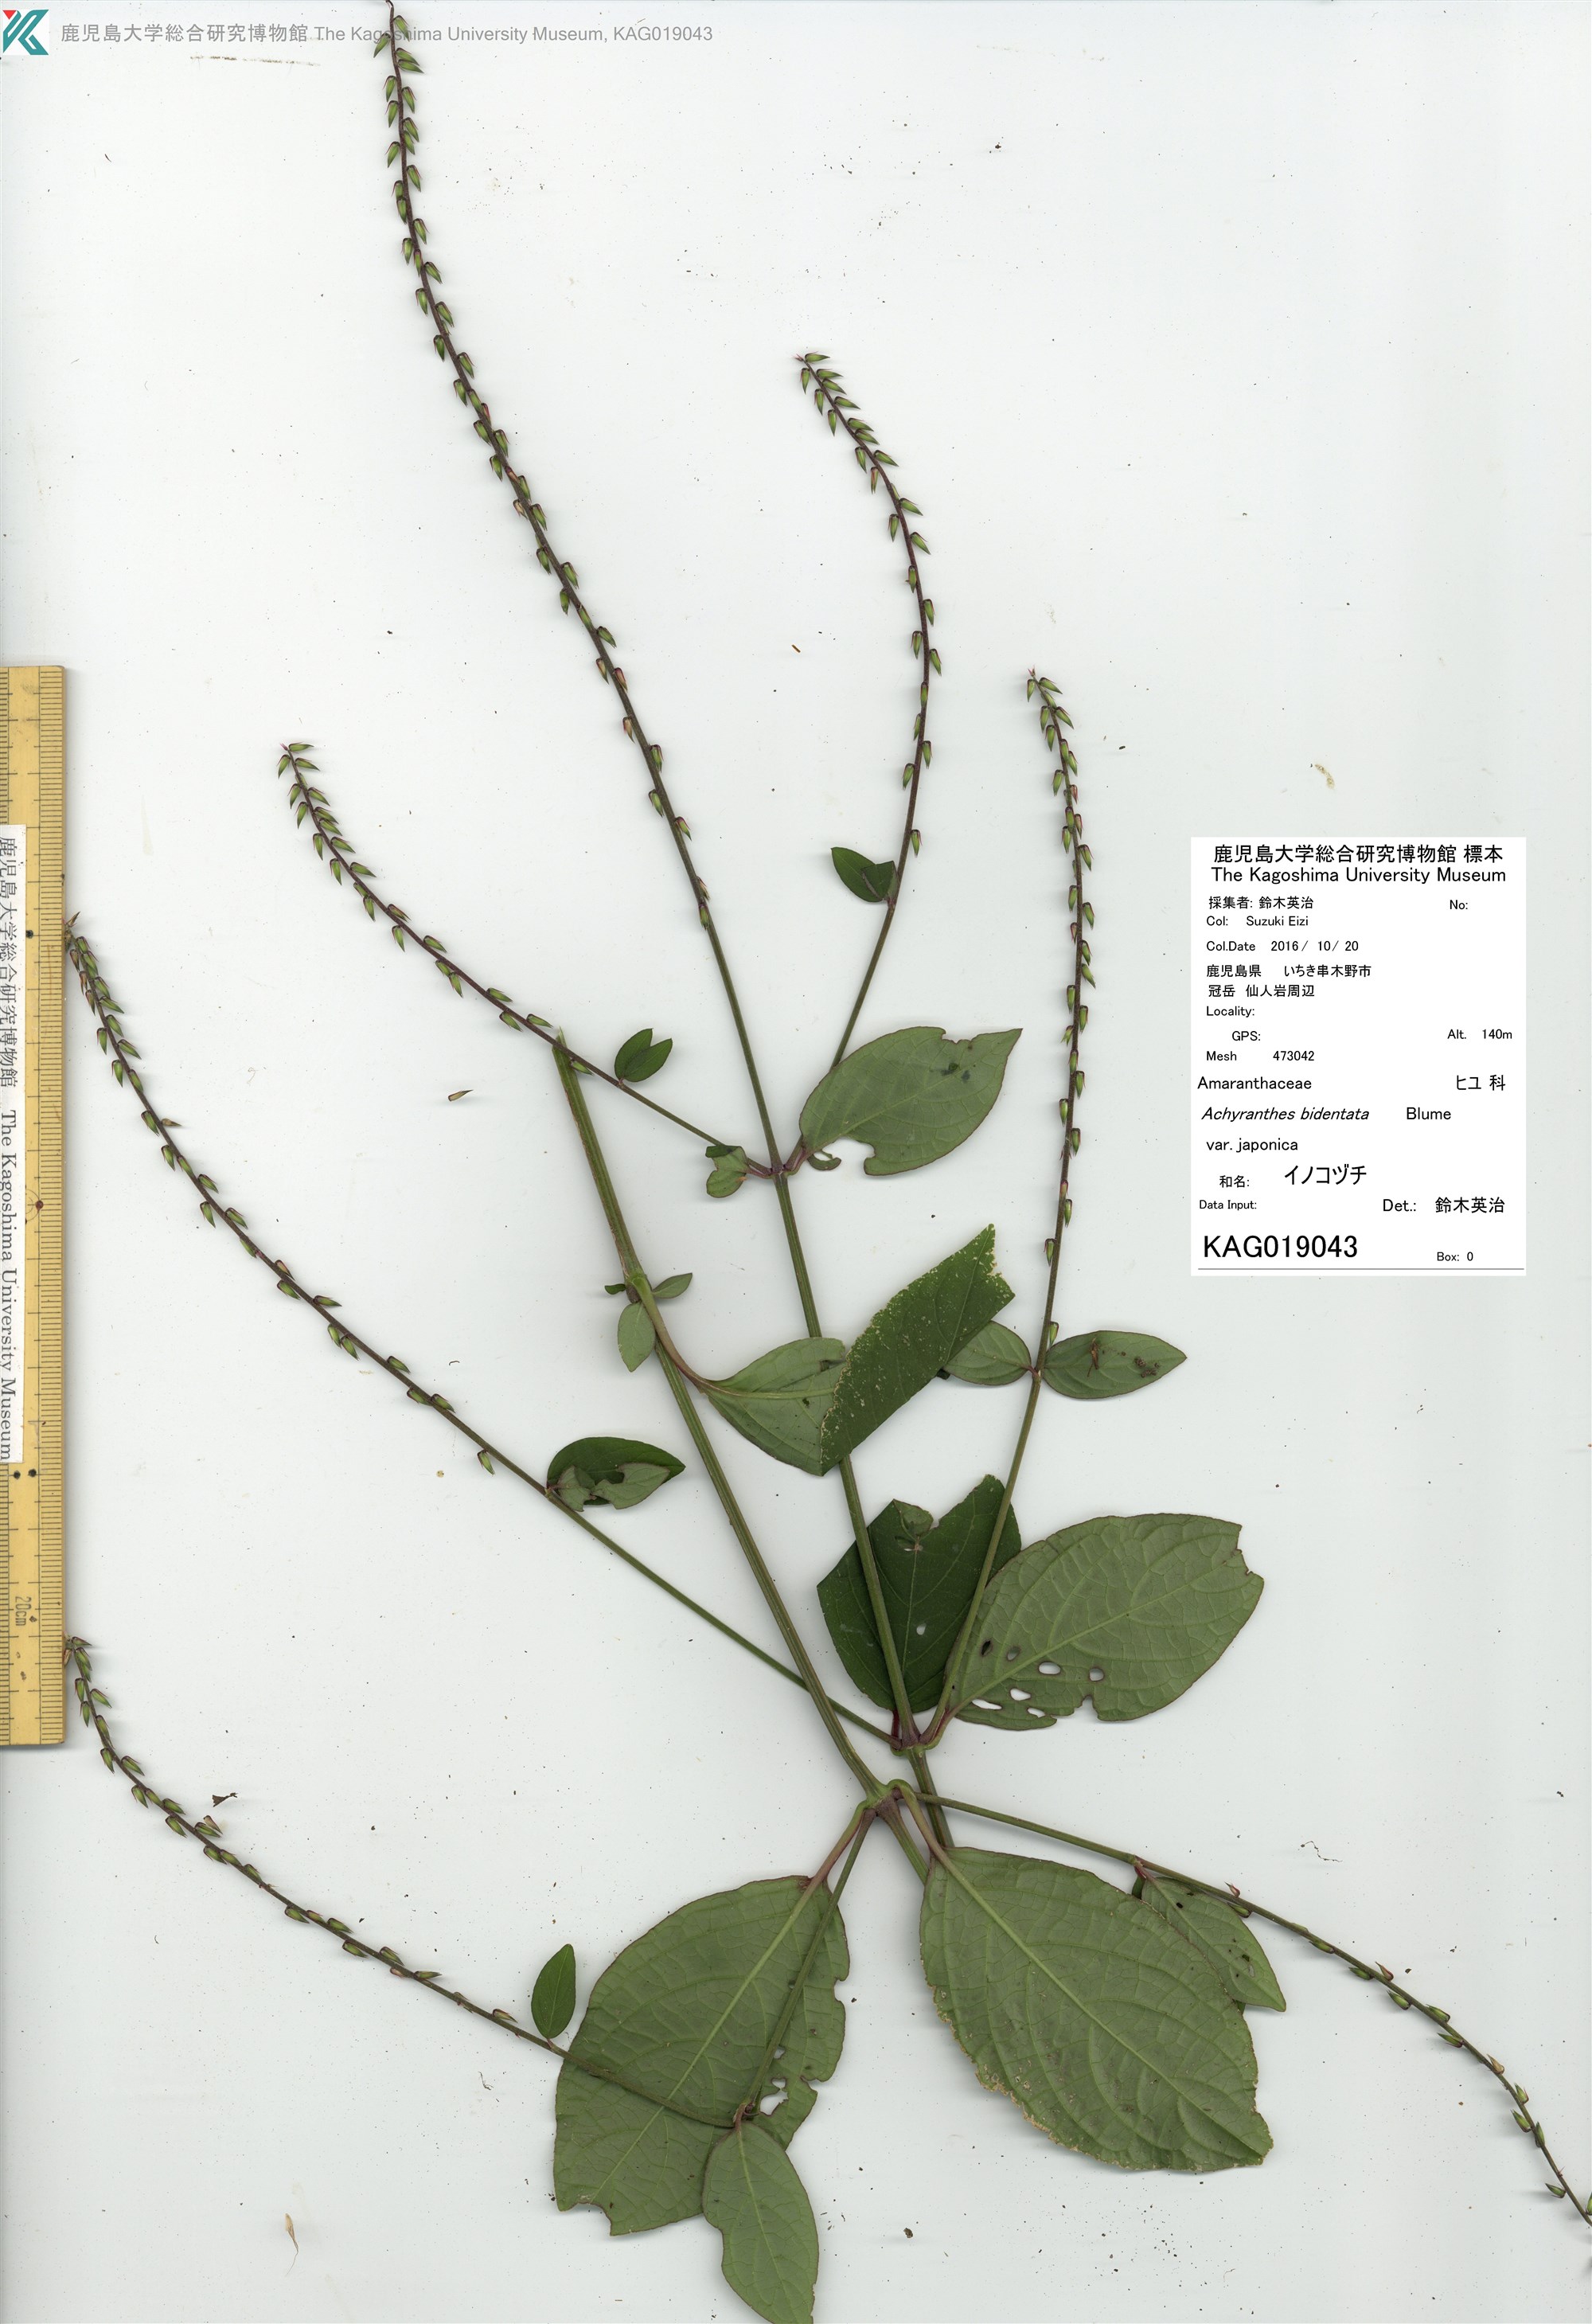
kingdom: Plantae
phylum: Tracheophyta
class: Magnoliopsida
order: Caryophyllales
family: Amaranthaceae
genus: Achyranthes
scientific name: Achyranthes bidentata
